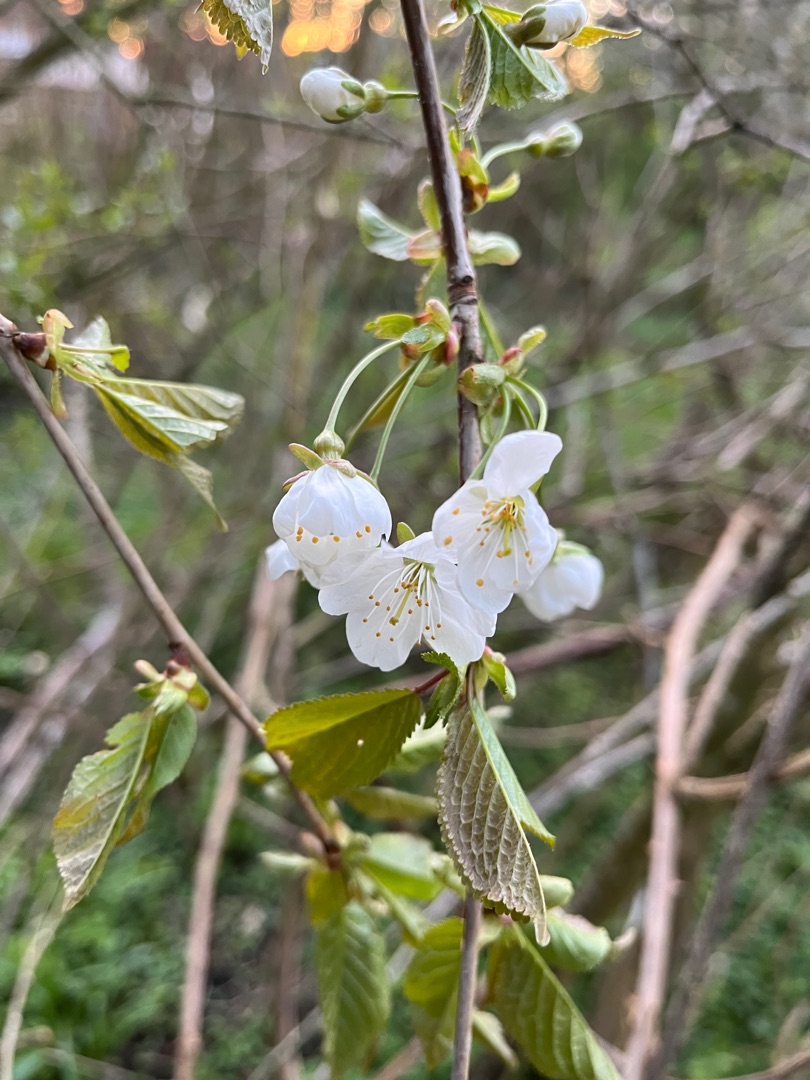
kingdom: Plantae
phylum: Tracheophyta
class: Magnoliopsida
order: Rosales
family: Rosaceae
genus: Prunus
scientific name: Prunus avium
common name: Fugle-kirsebær
